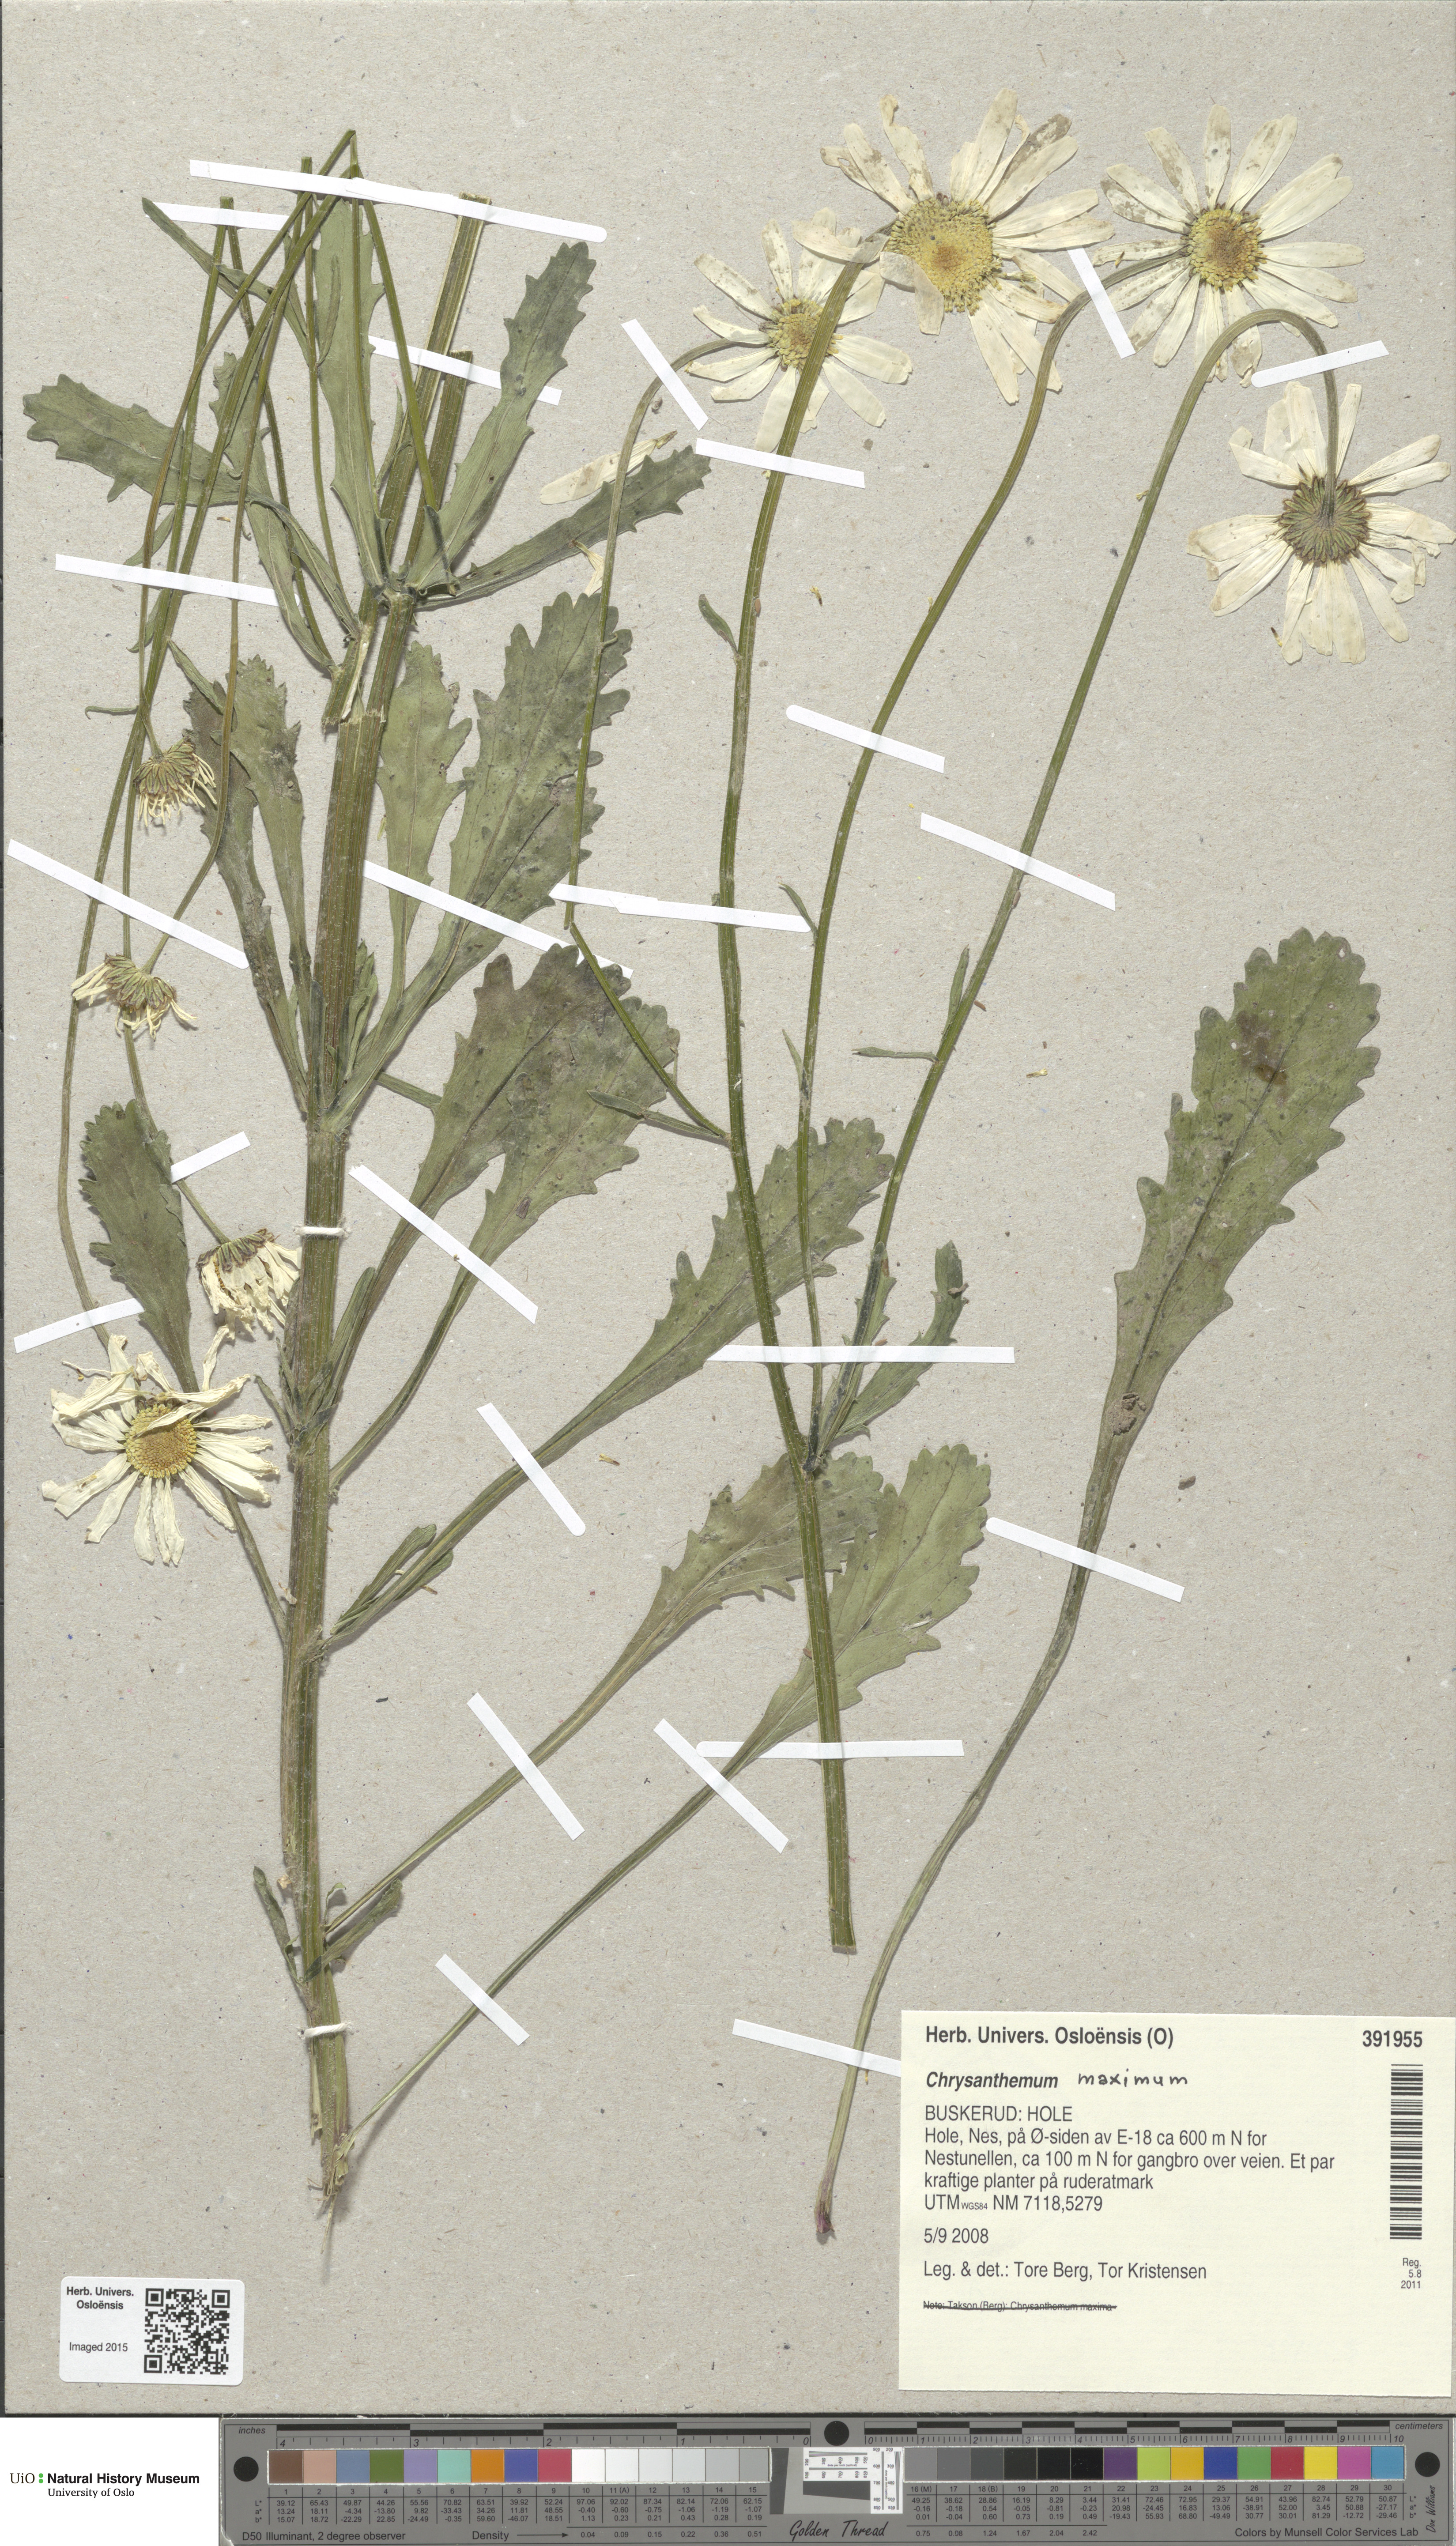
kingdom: Plantae
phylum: Tracheophyta
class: Magnoliopsida
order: Asterales
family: Asteraceae
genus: Leucanthemum
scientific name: Leucanthemum superbum
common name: Shasta daisy
